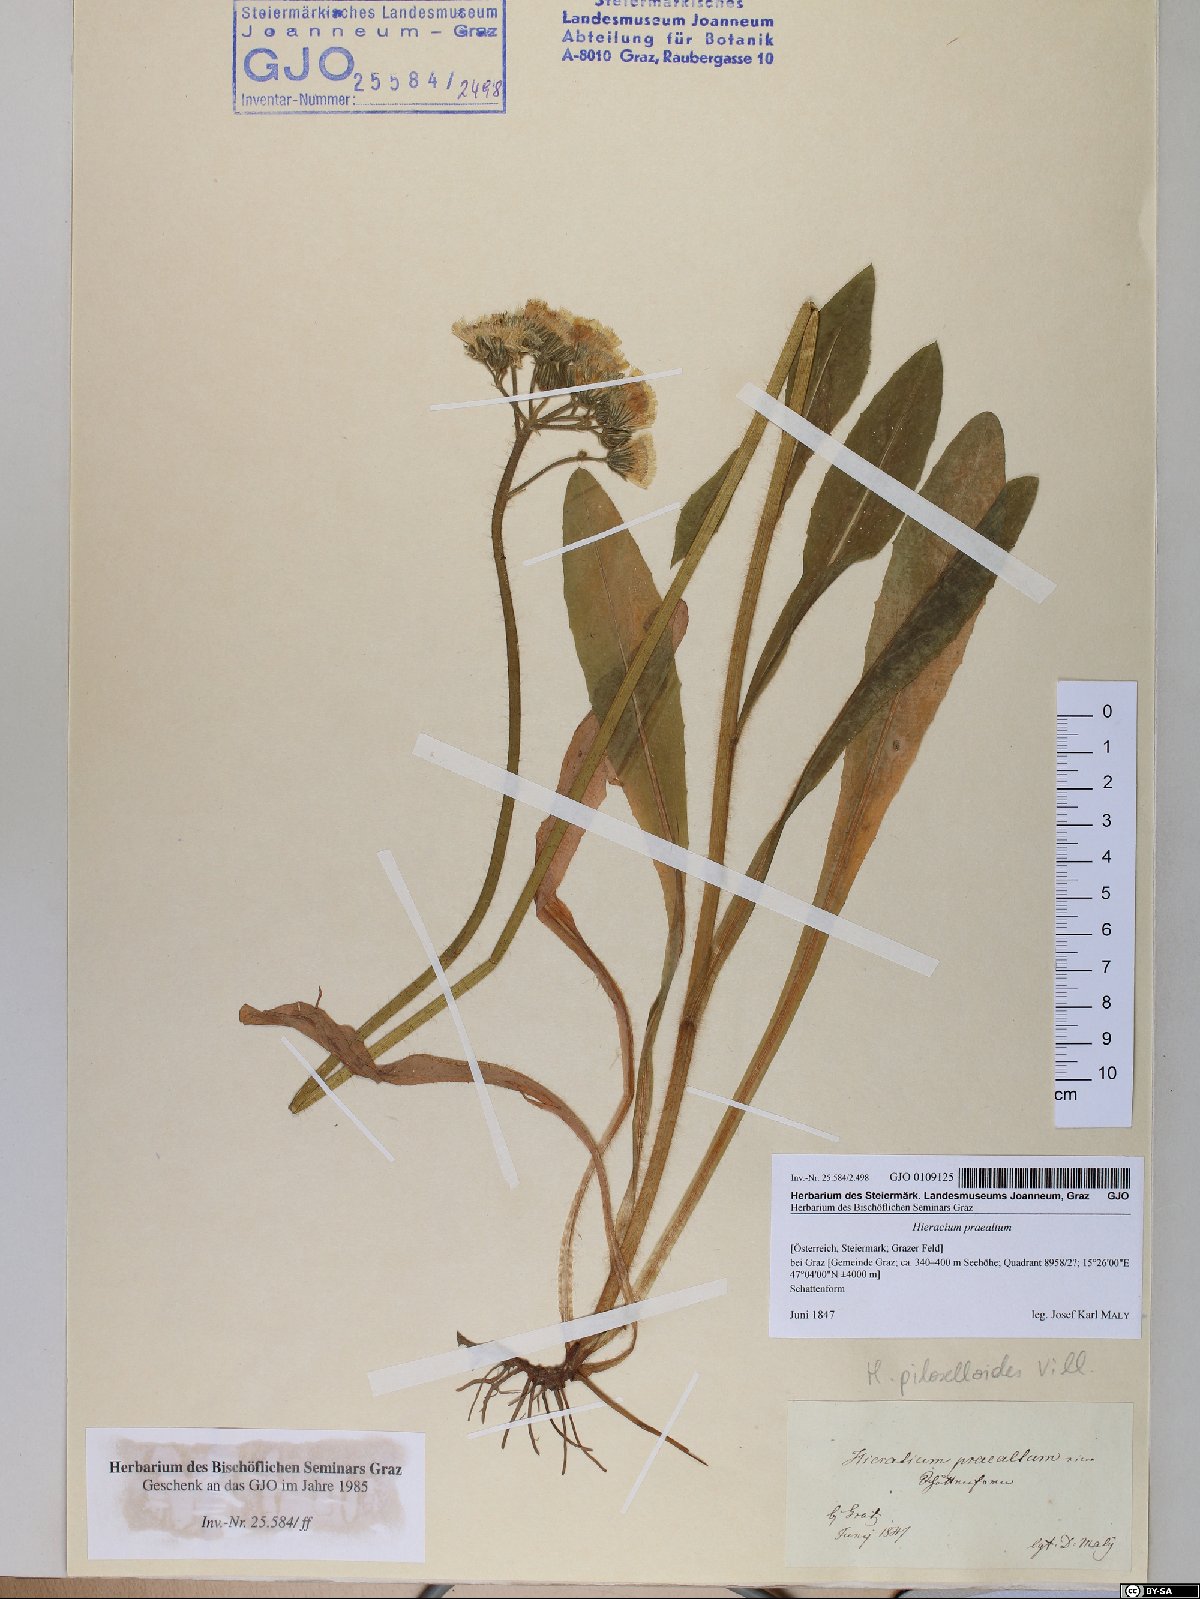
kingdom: Plantae
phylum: Tracheophyta
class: Magnoliopsida
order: Asterales
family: Asteraceae
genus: Pilosella
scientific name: Pilosella piloselloides
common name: Glaucous king-devil
